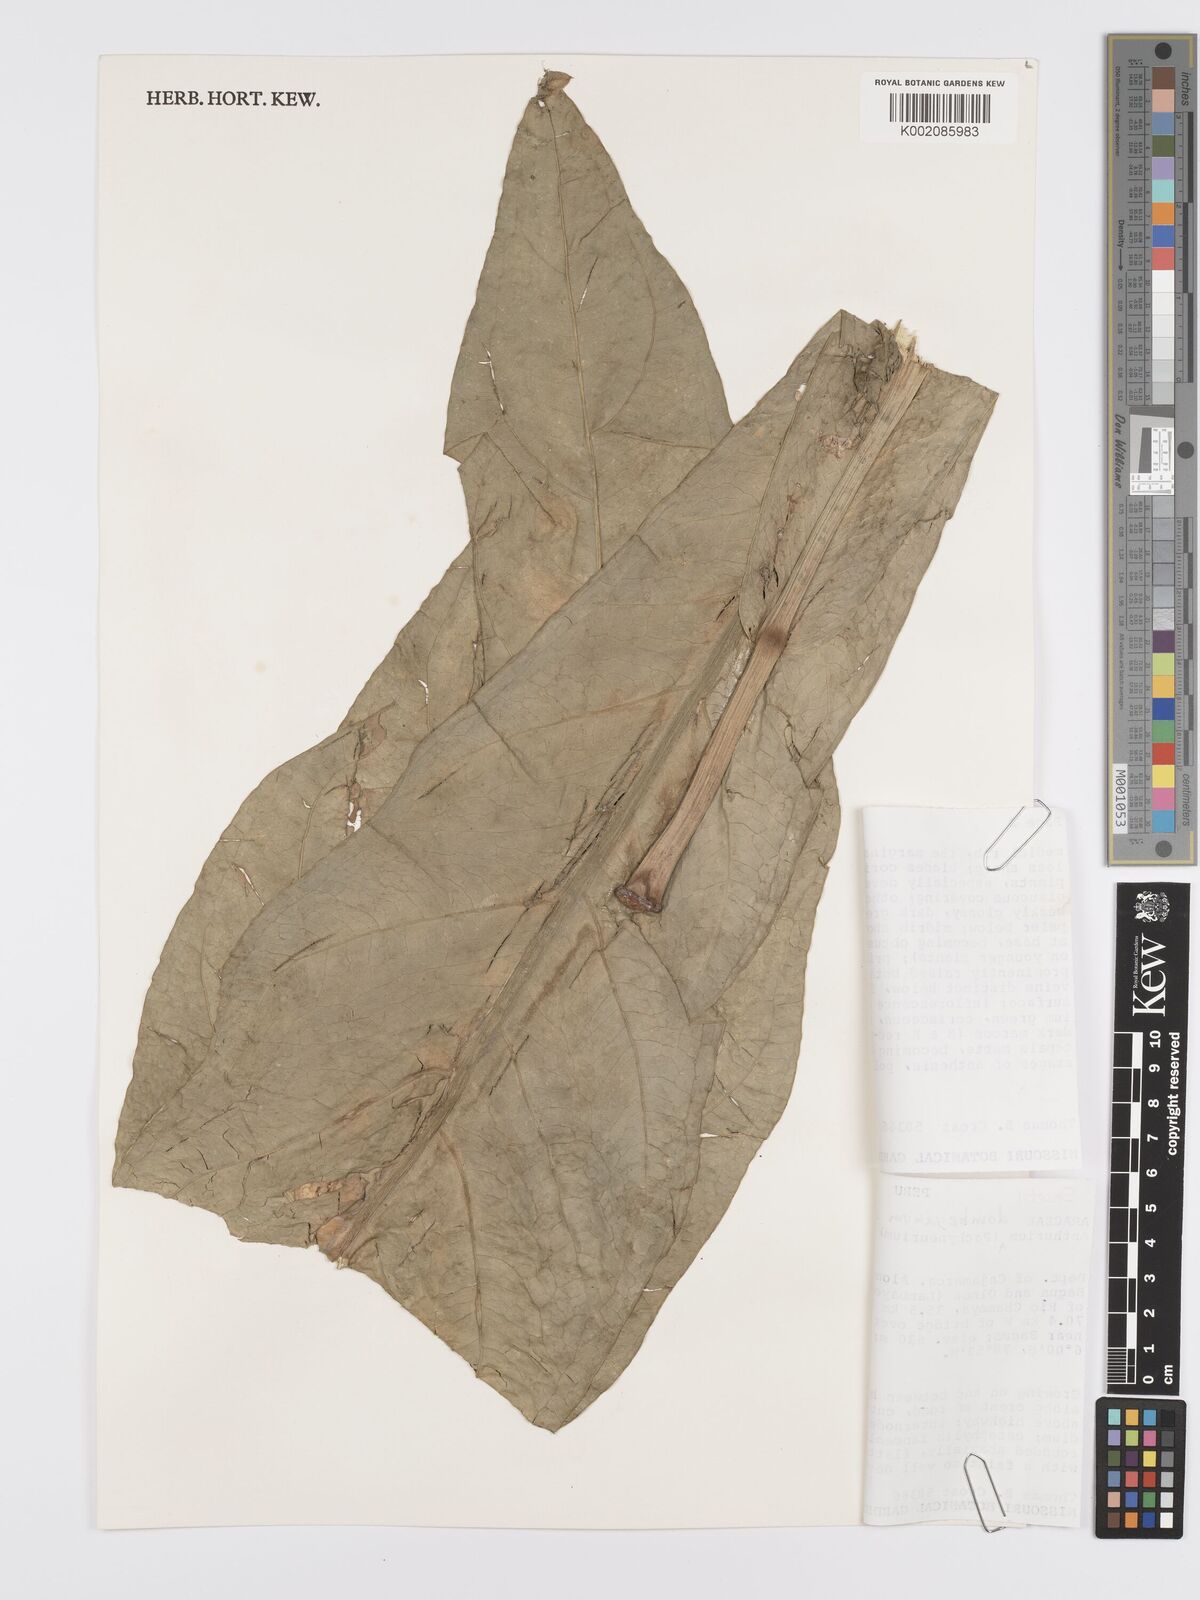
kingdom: Plantae
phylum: Tracheophyta
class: Liliopsida
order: Alismatales
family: Araceae
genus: Anthurium
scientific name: Anthurium dombeyanum
